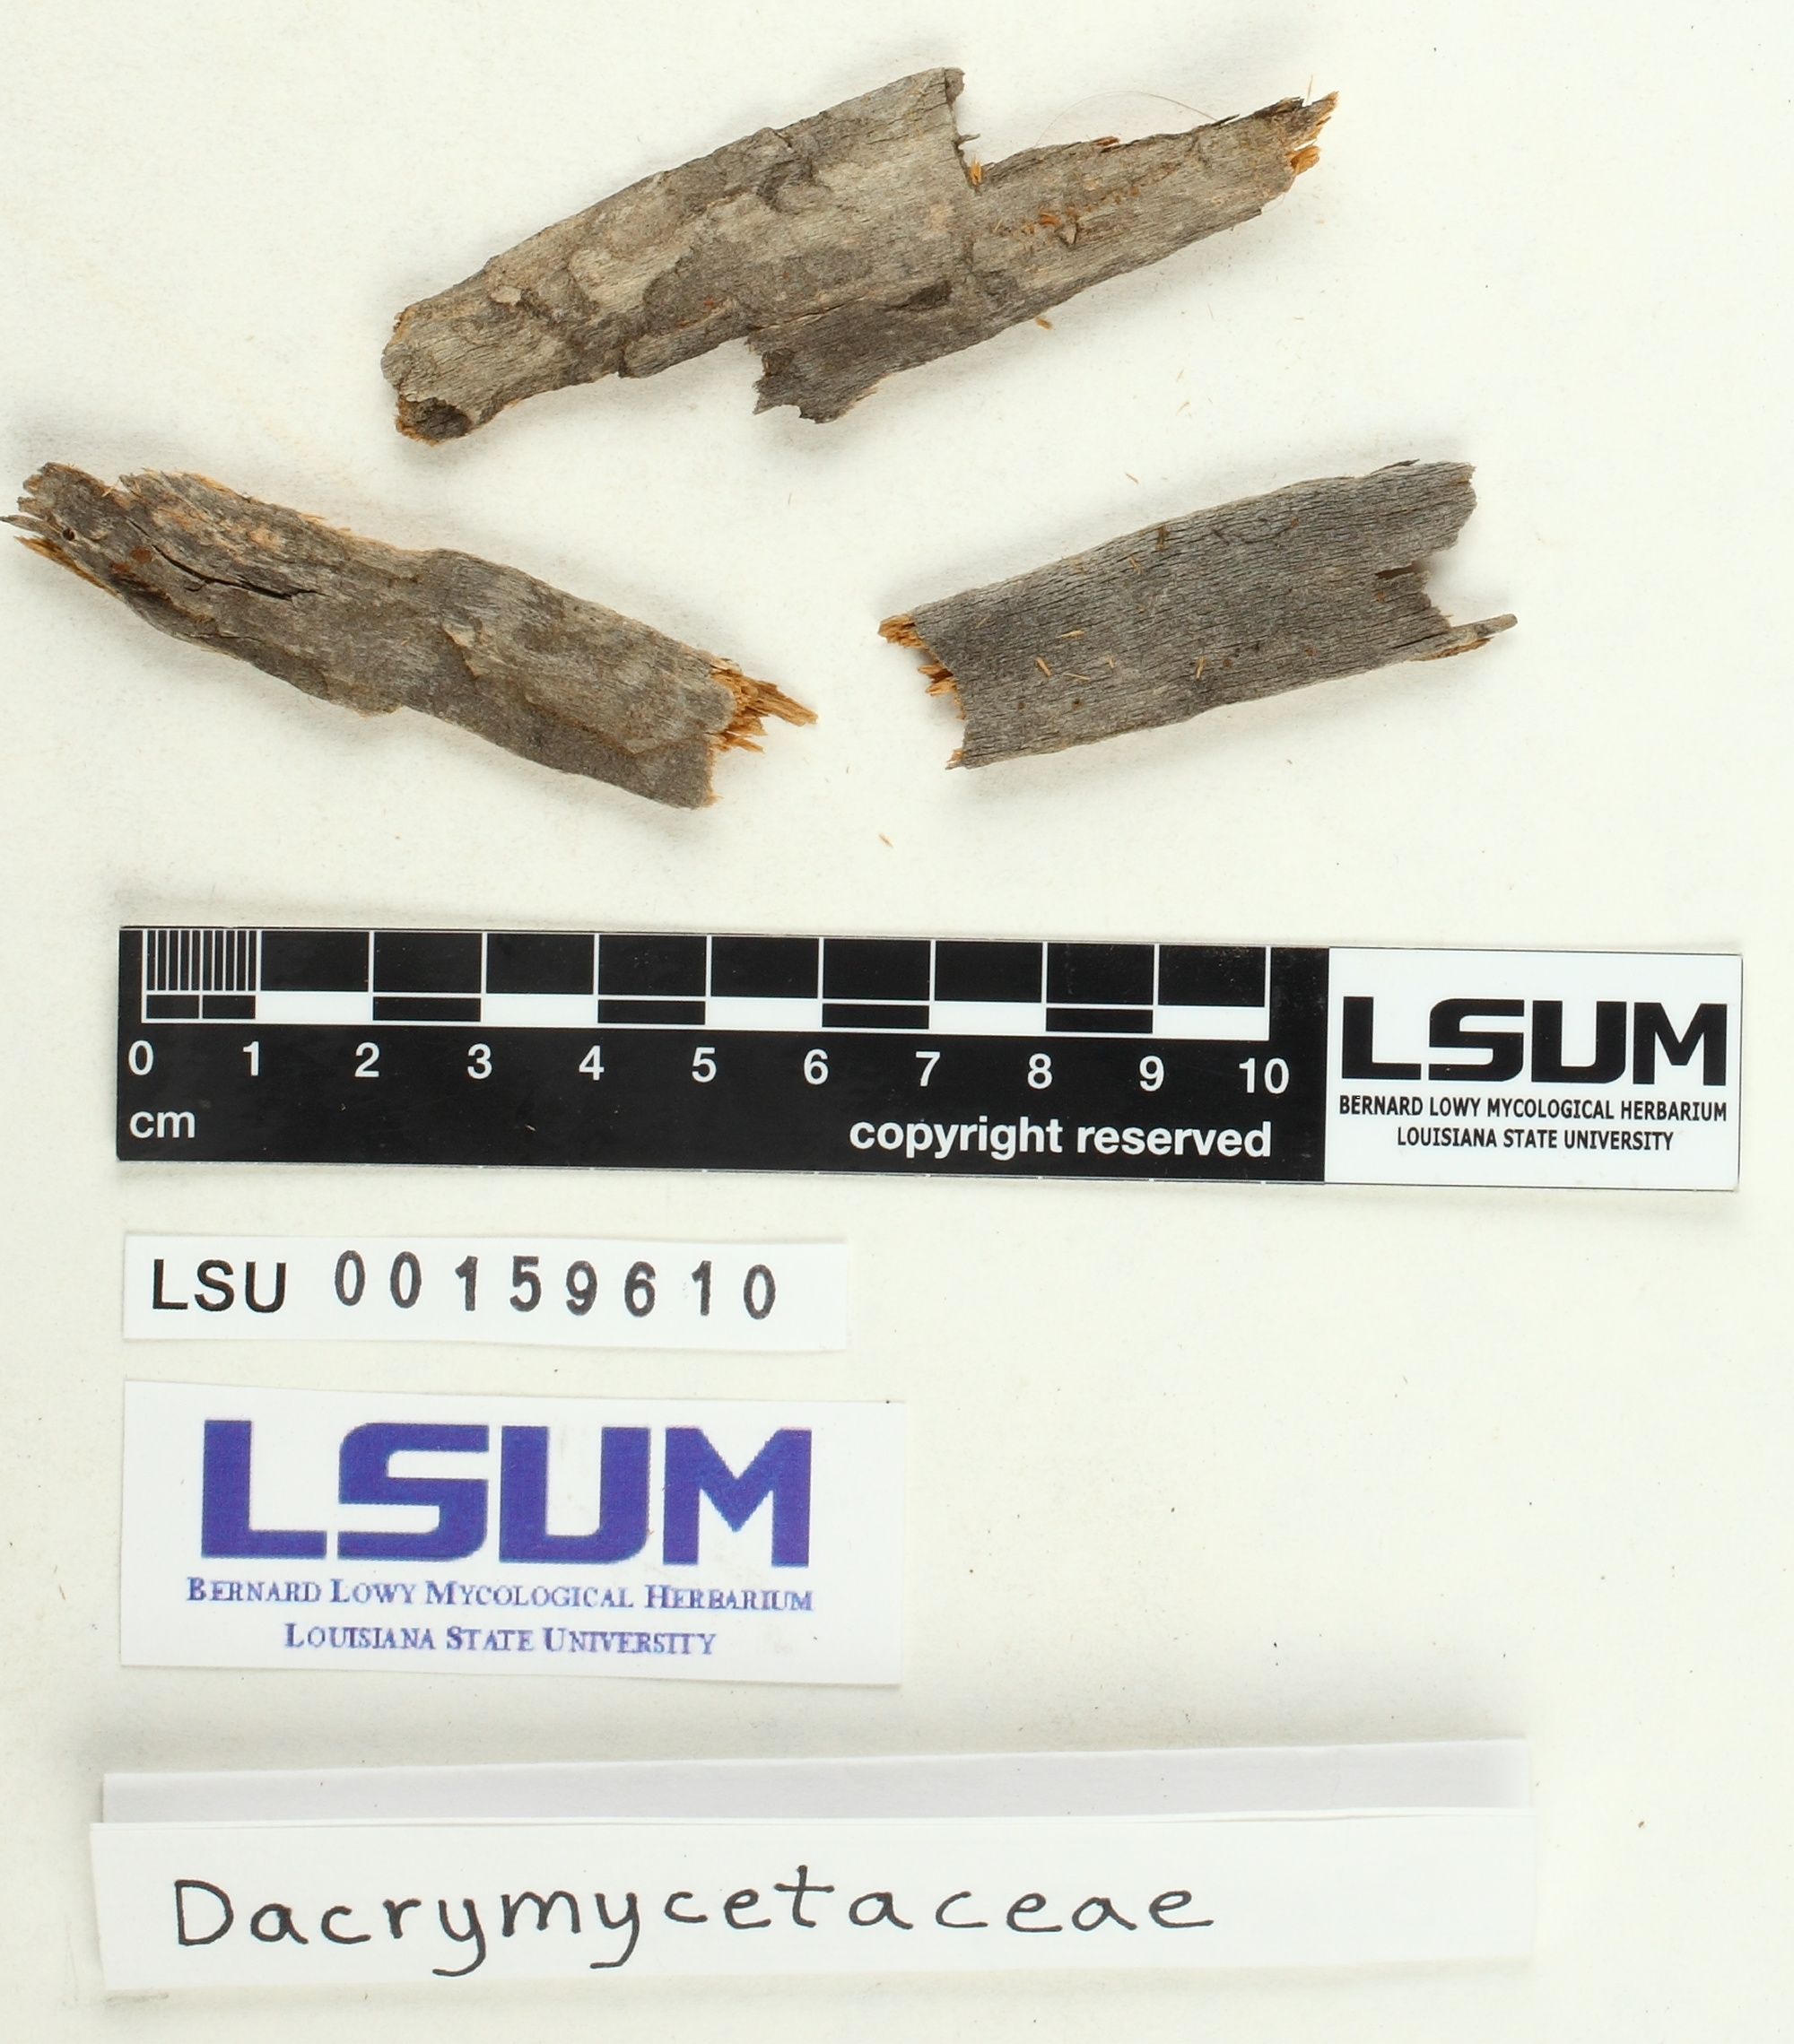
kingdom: Fungi
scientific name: Fungi
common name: Fungi
